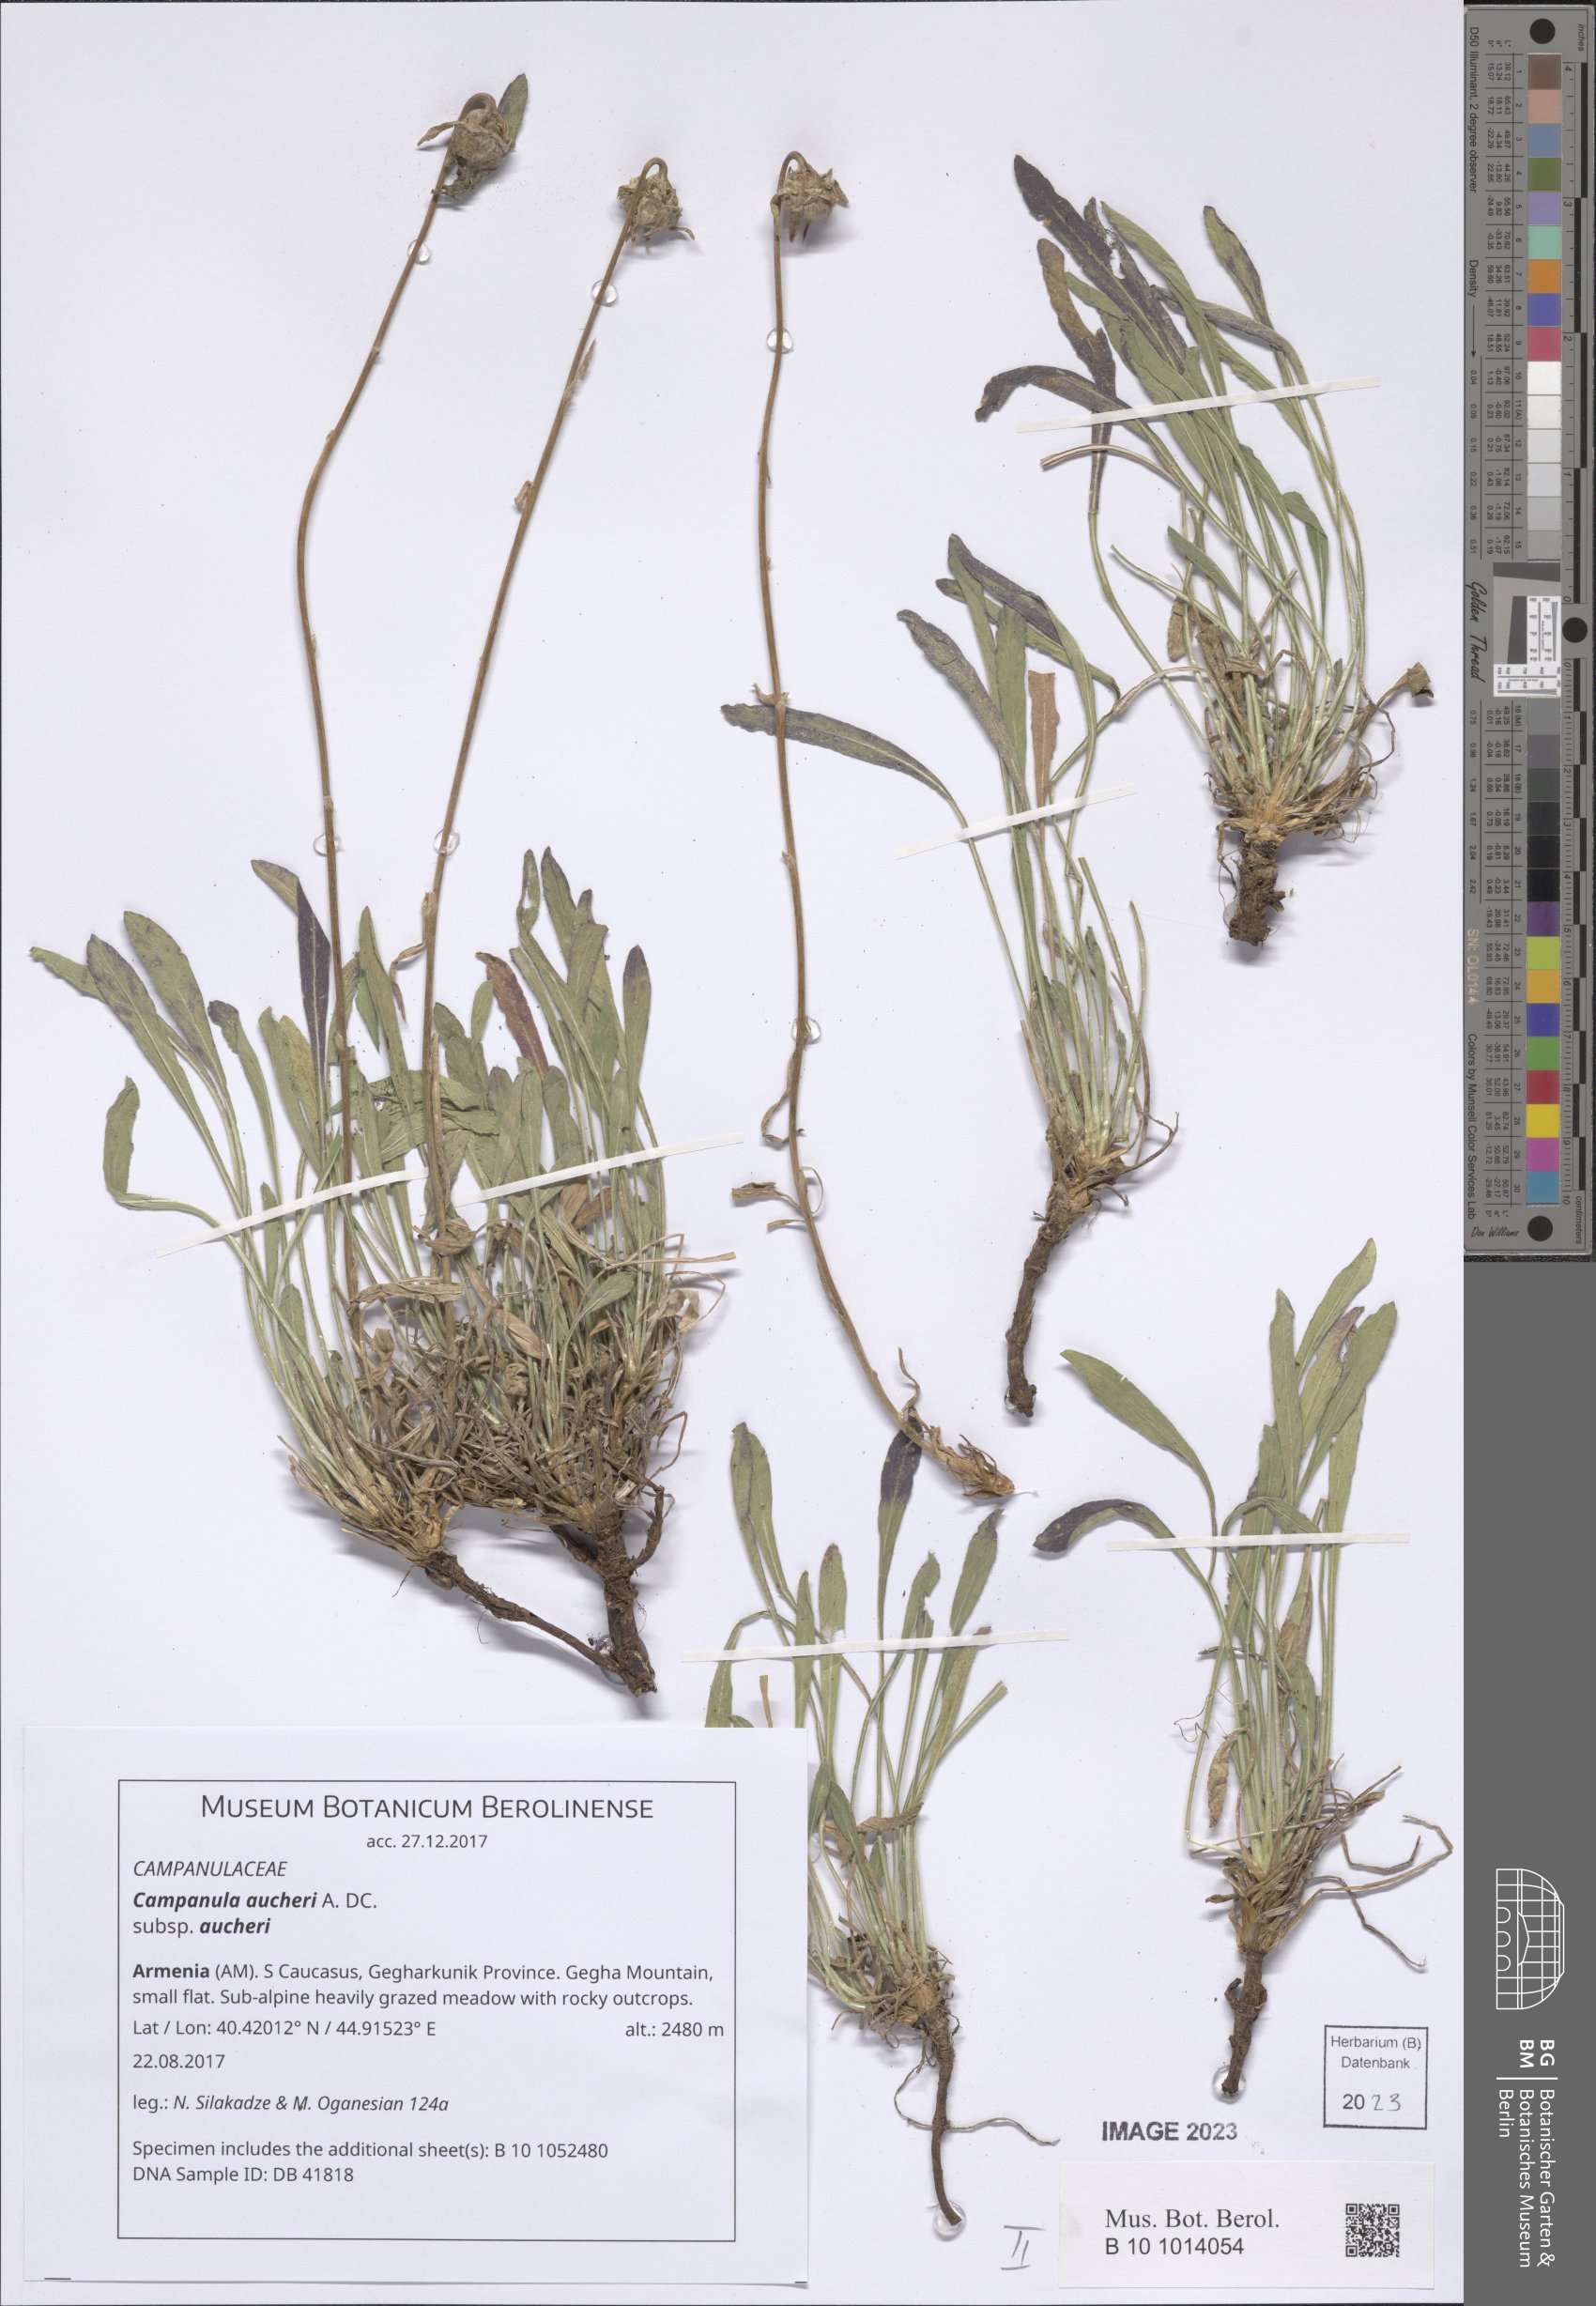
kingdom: Plantae
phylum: Tracheophyta
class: Magnoliopsida
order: Asterales
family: Campanulaceae
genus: Campanula
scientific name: Campanula saxifraga
